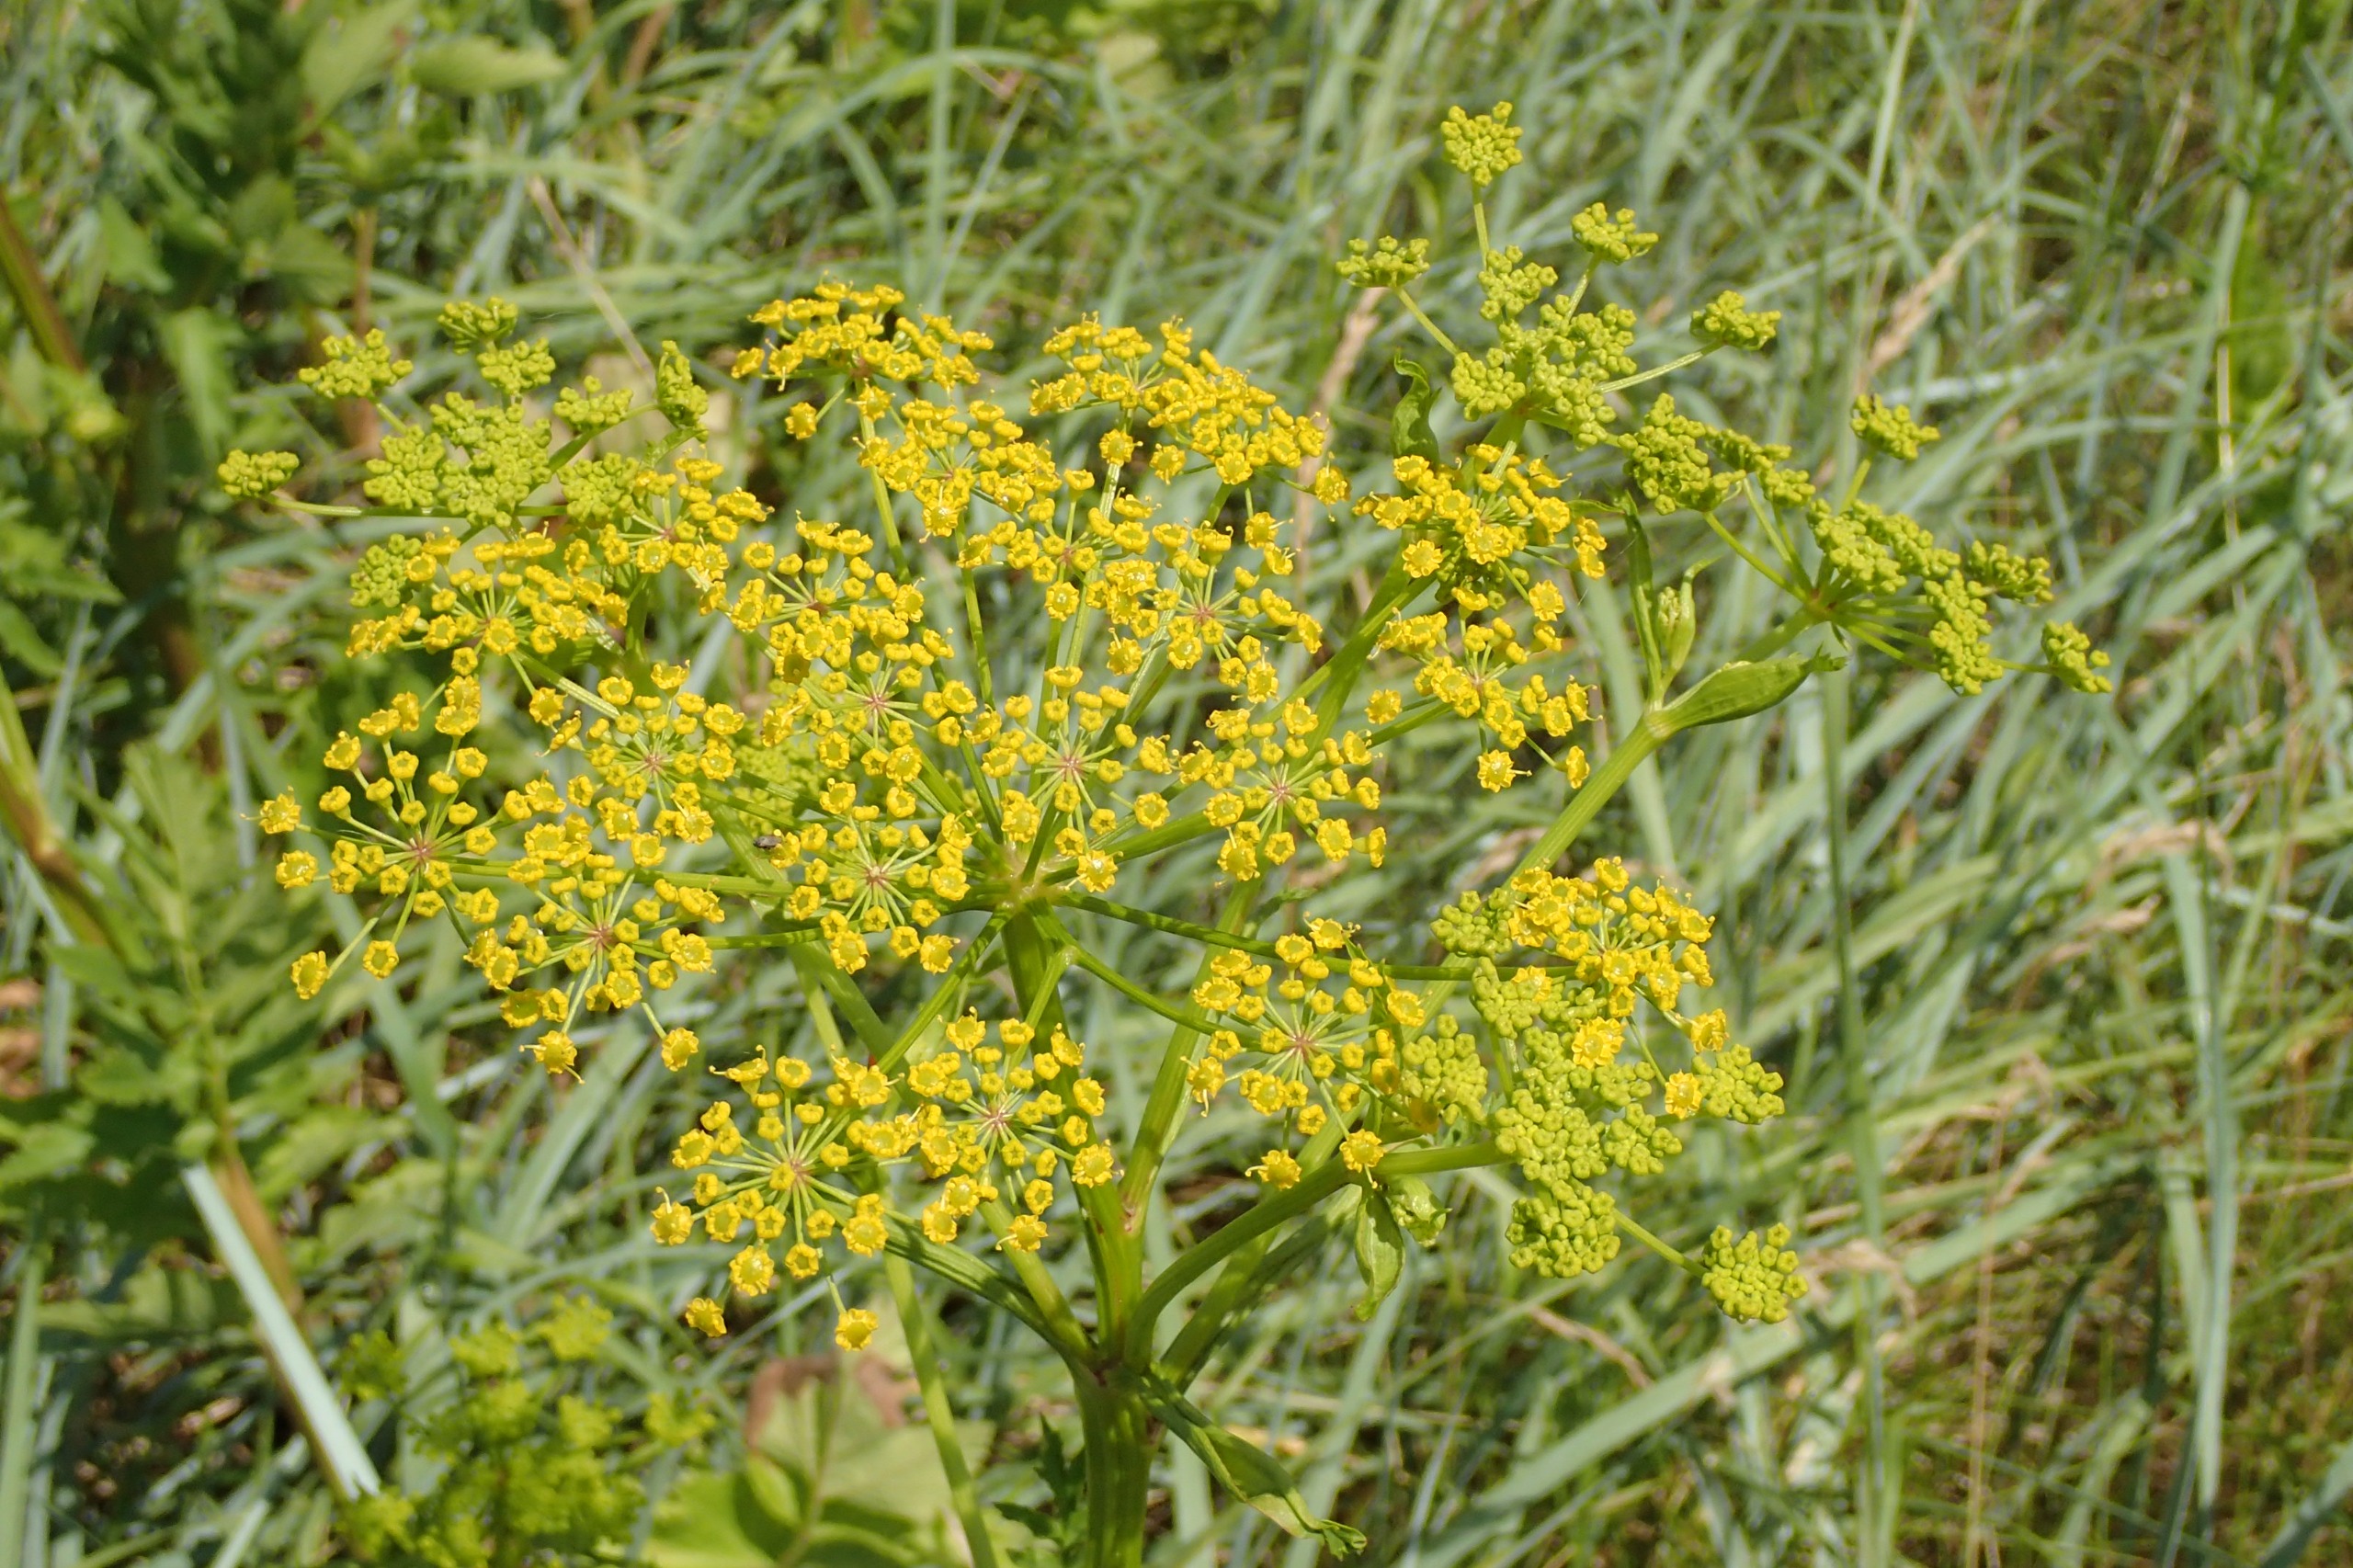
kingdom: Plantae
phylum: Tracheophyta
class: Magnoliopsida
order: Apiales
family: Apiaceae
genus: Pastinaca
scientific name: Pastinaca sativa
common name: Pastinak
